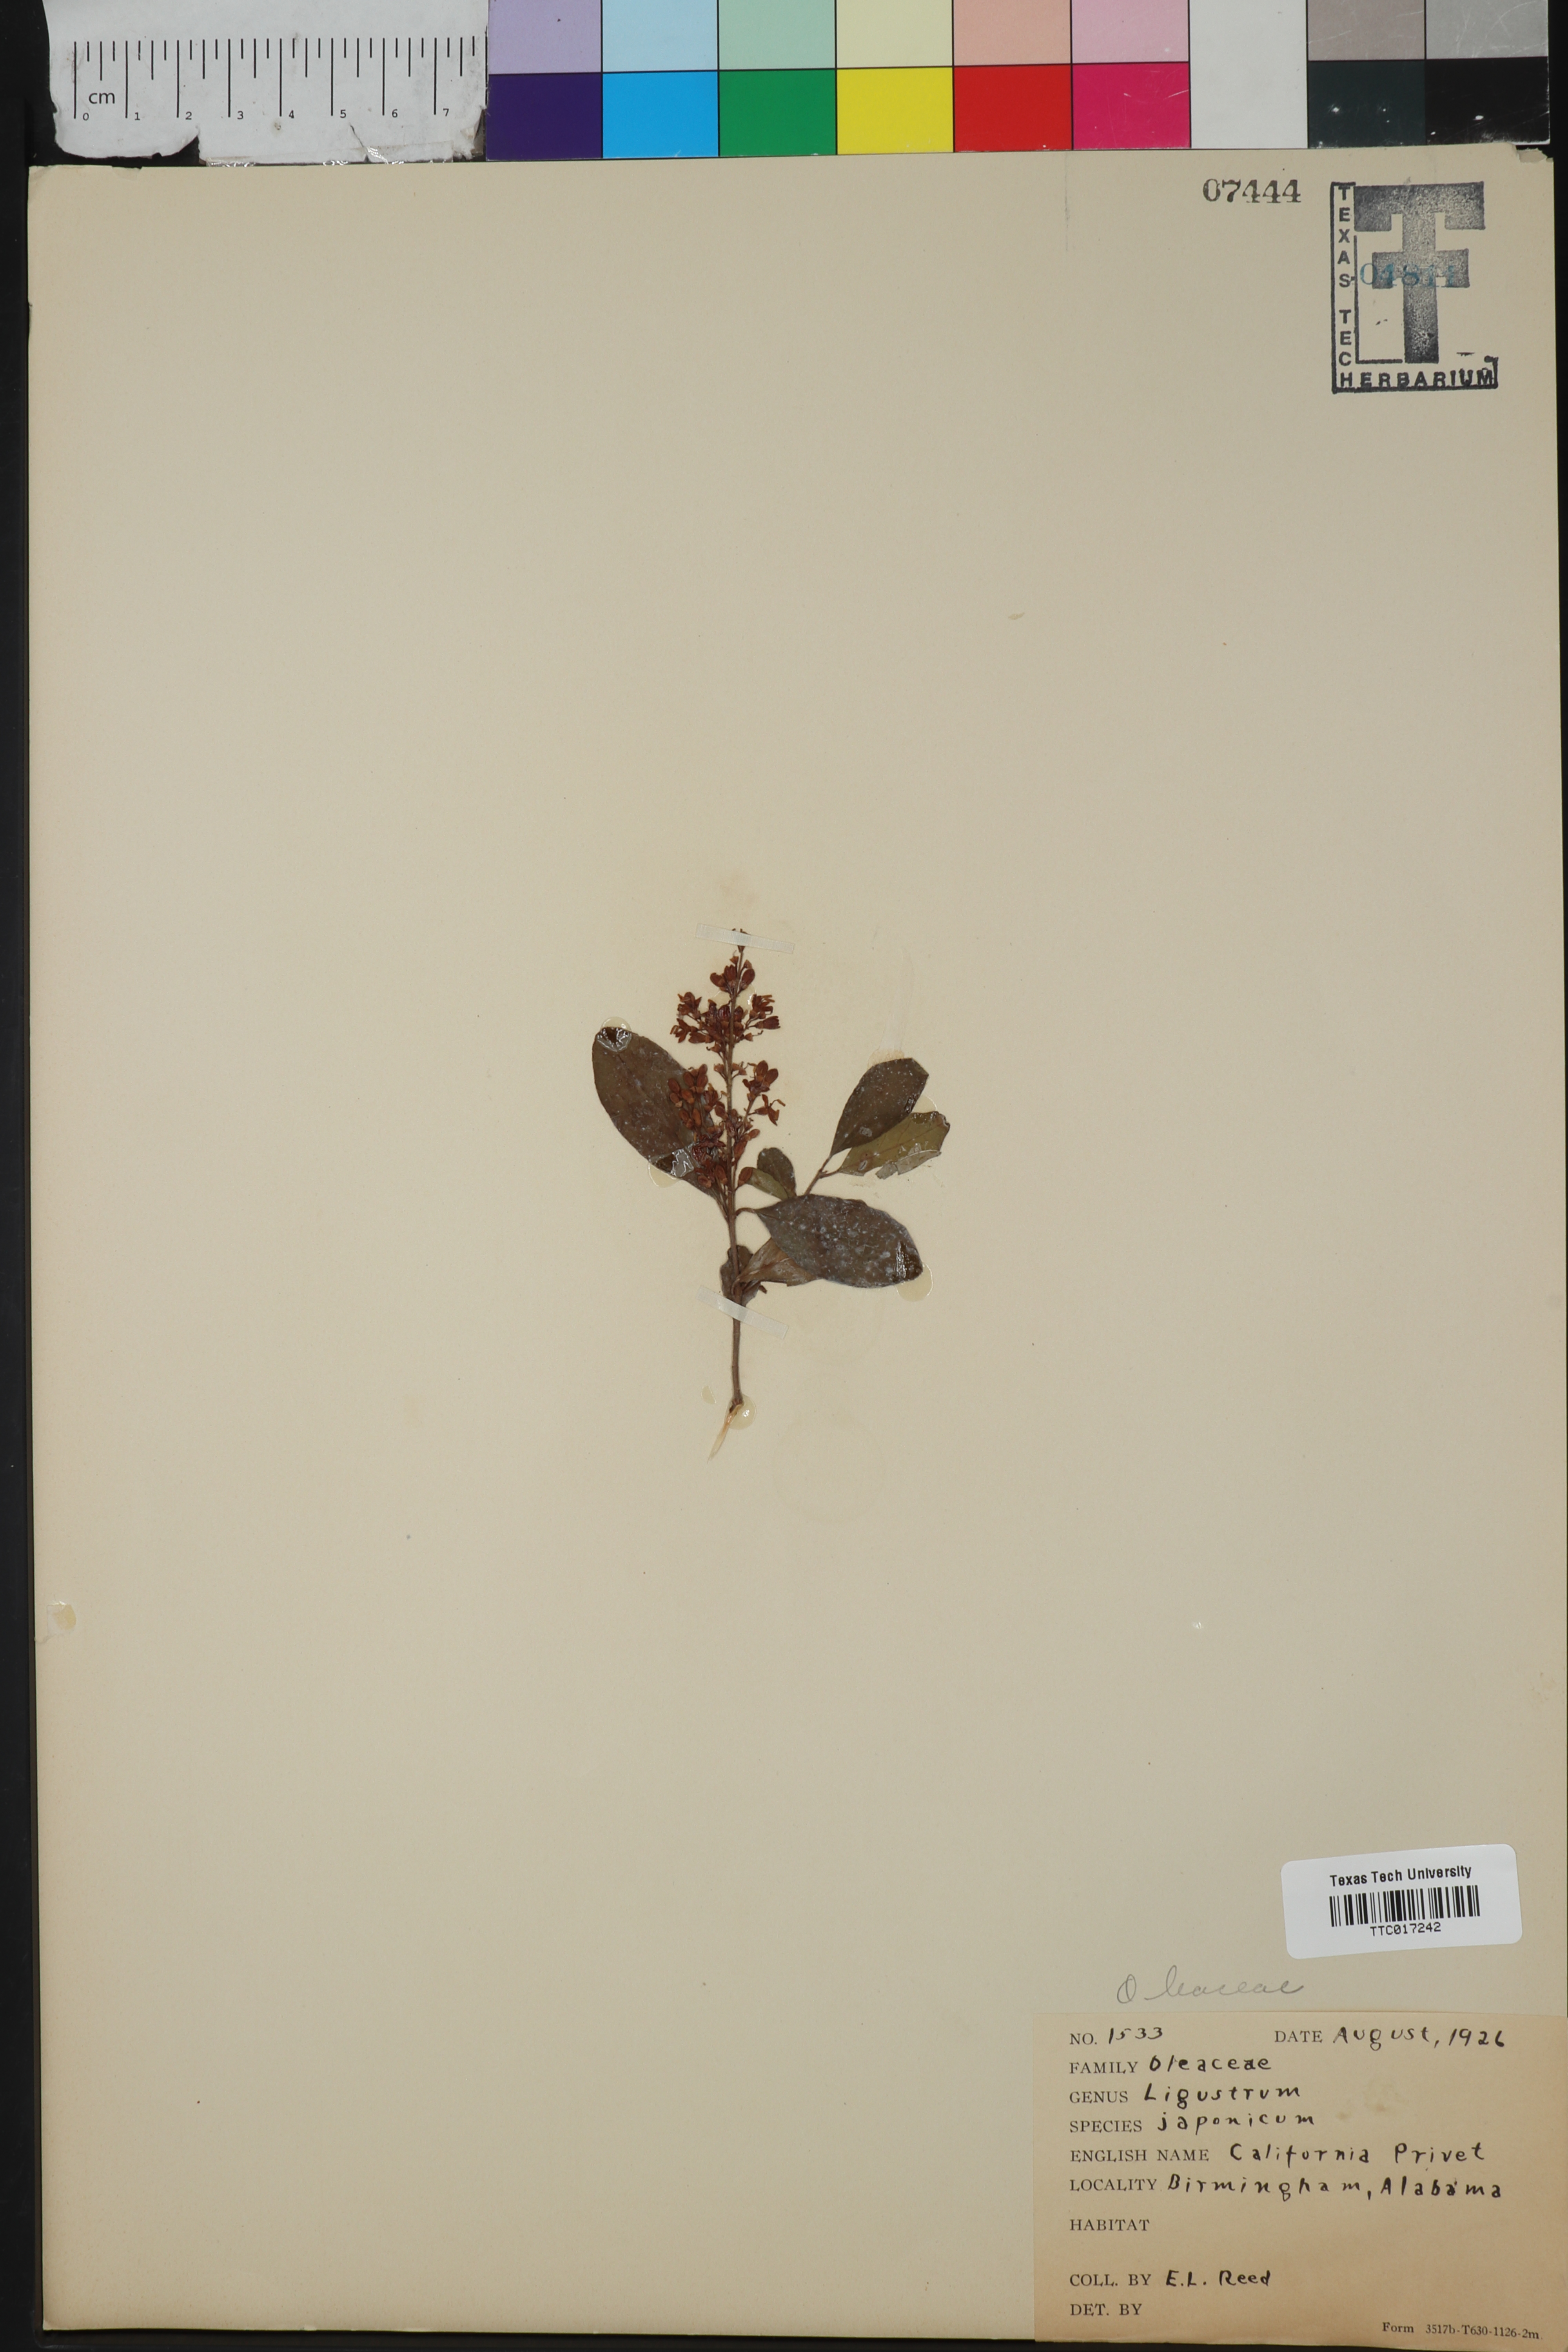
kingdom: Plantae
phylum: Tracheophyta
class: Magnoliopsida
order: Lamiales
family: Oleaceae
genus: Ligustrum
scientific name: Ligustrum japonicum
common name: Japanese privet
